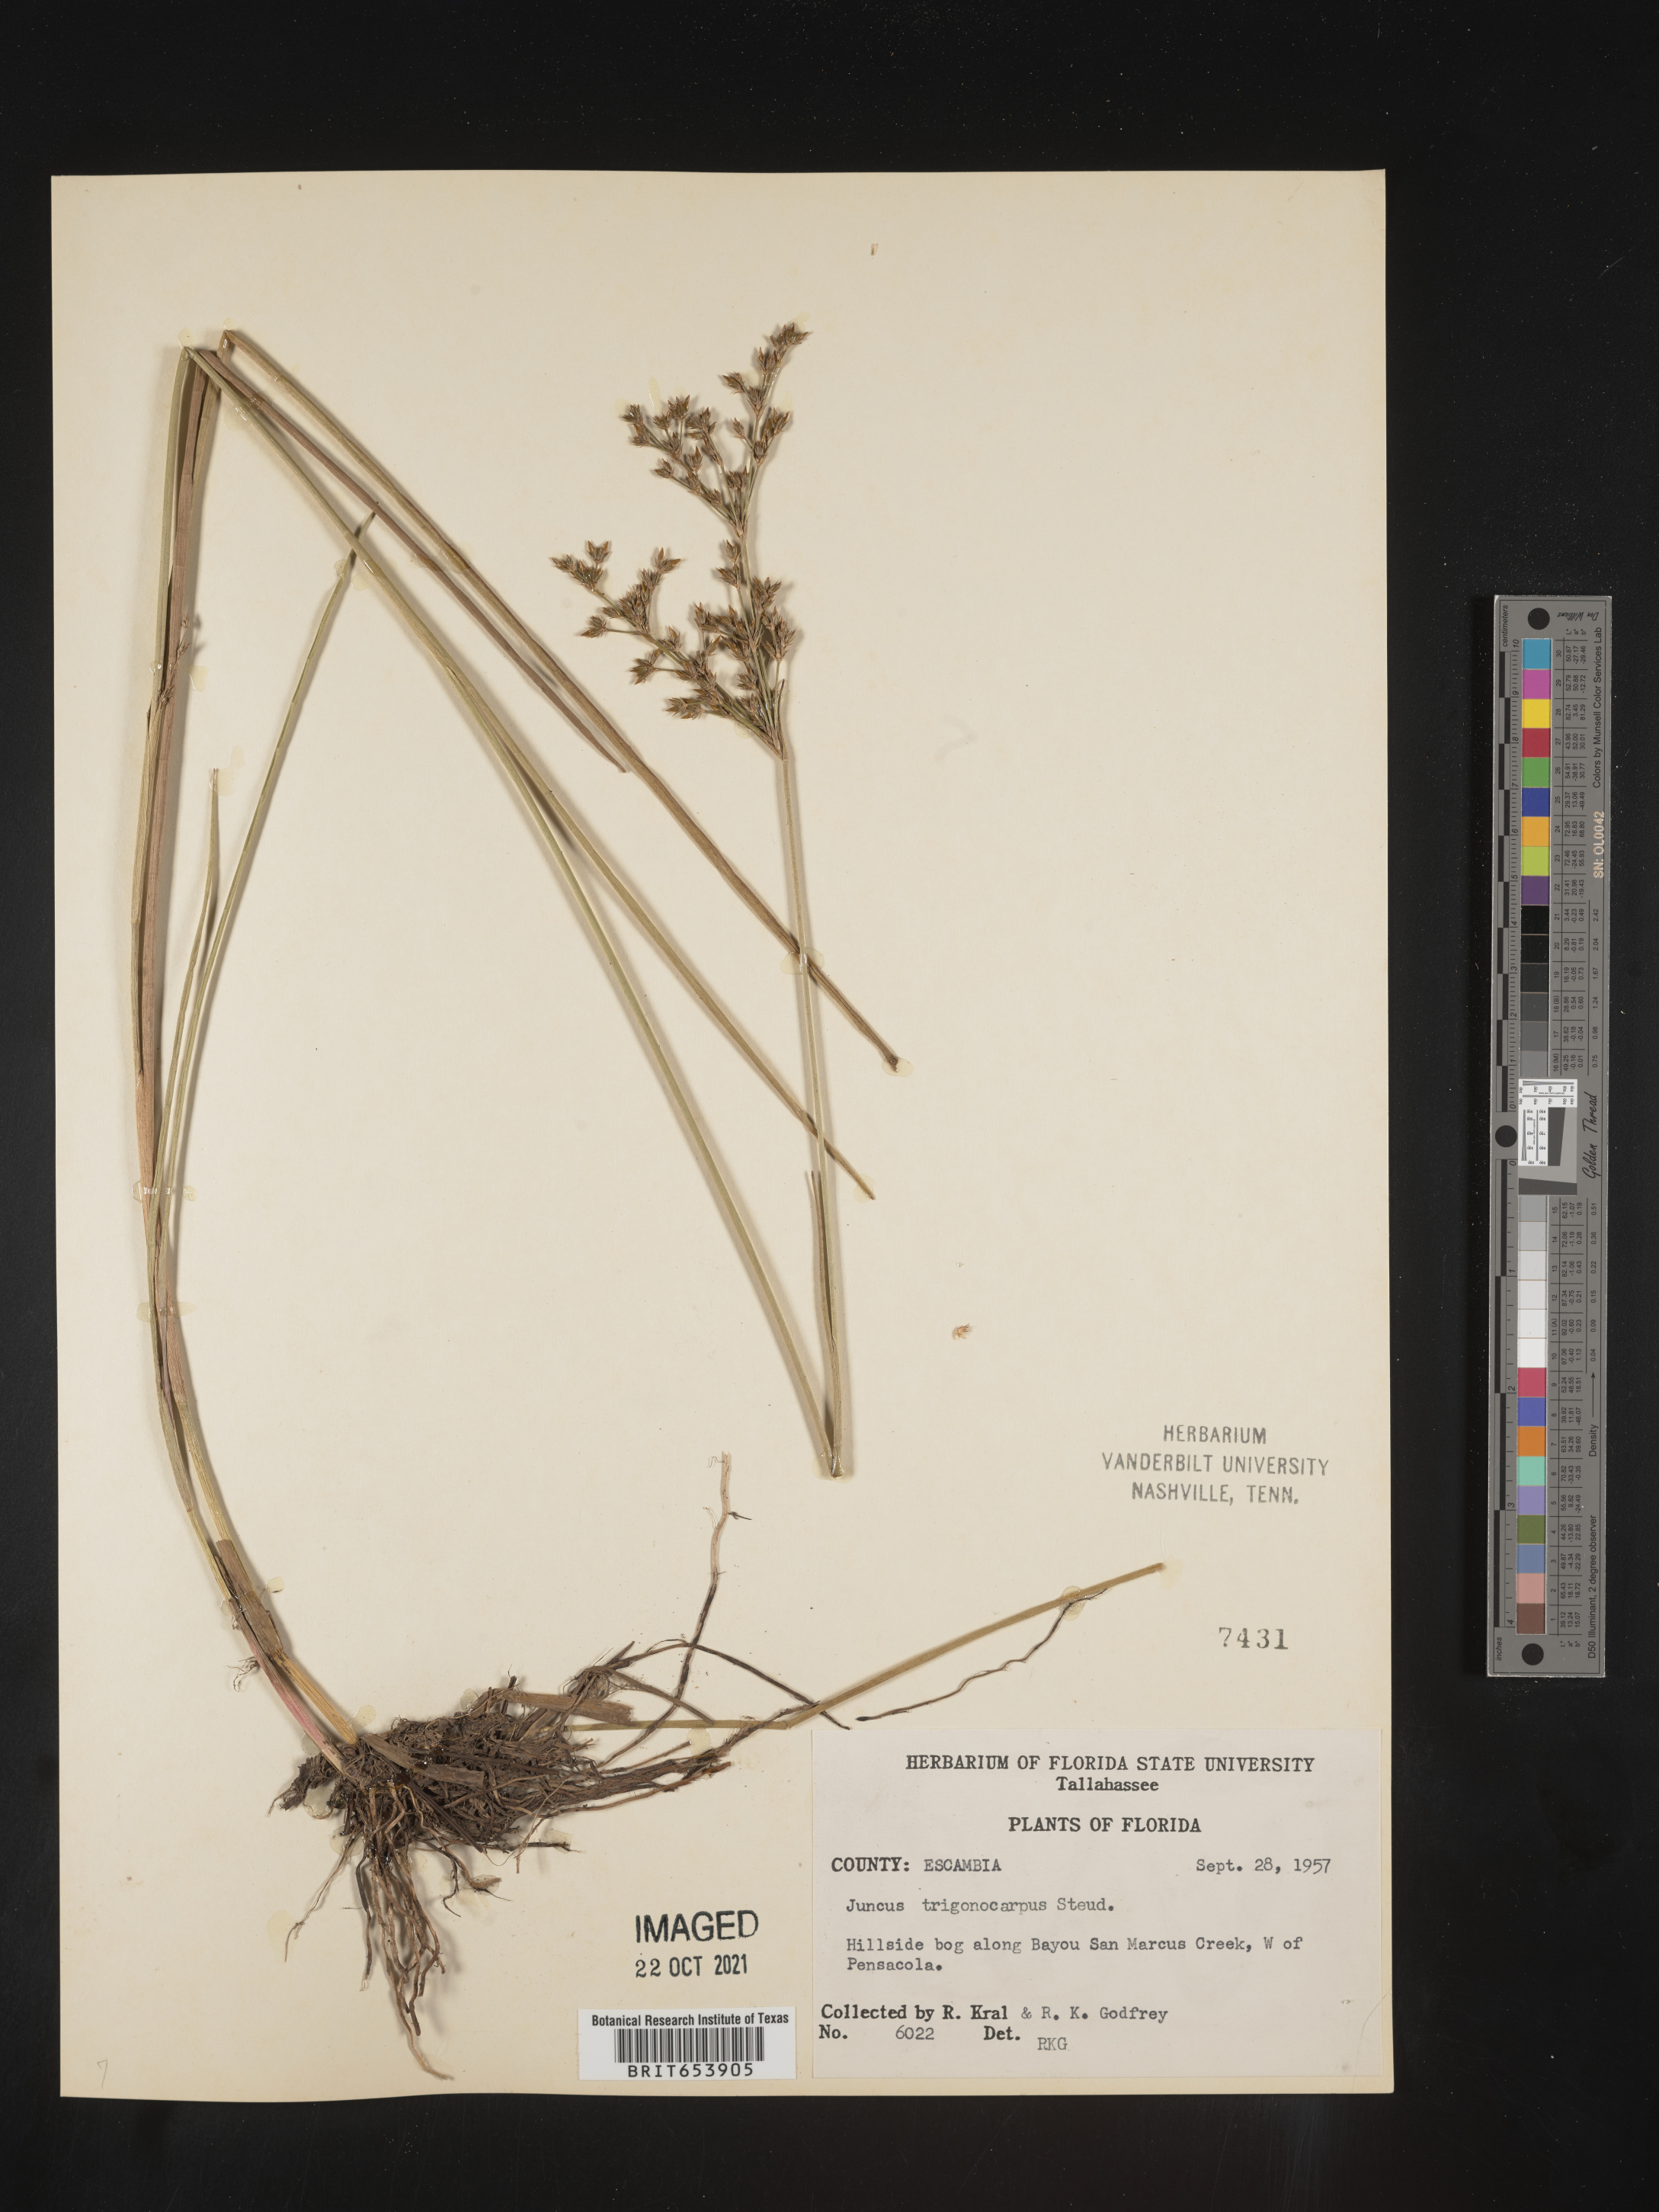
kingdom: Plantae
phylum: Tracheophyta
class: Liliopsida
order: Poales
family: Juncaceae
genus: Juncus
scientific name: Juncus trigonocarpus
